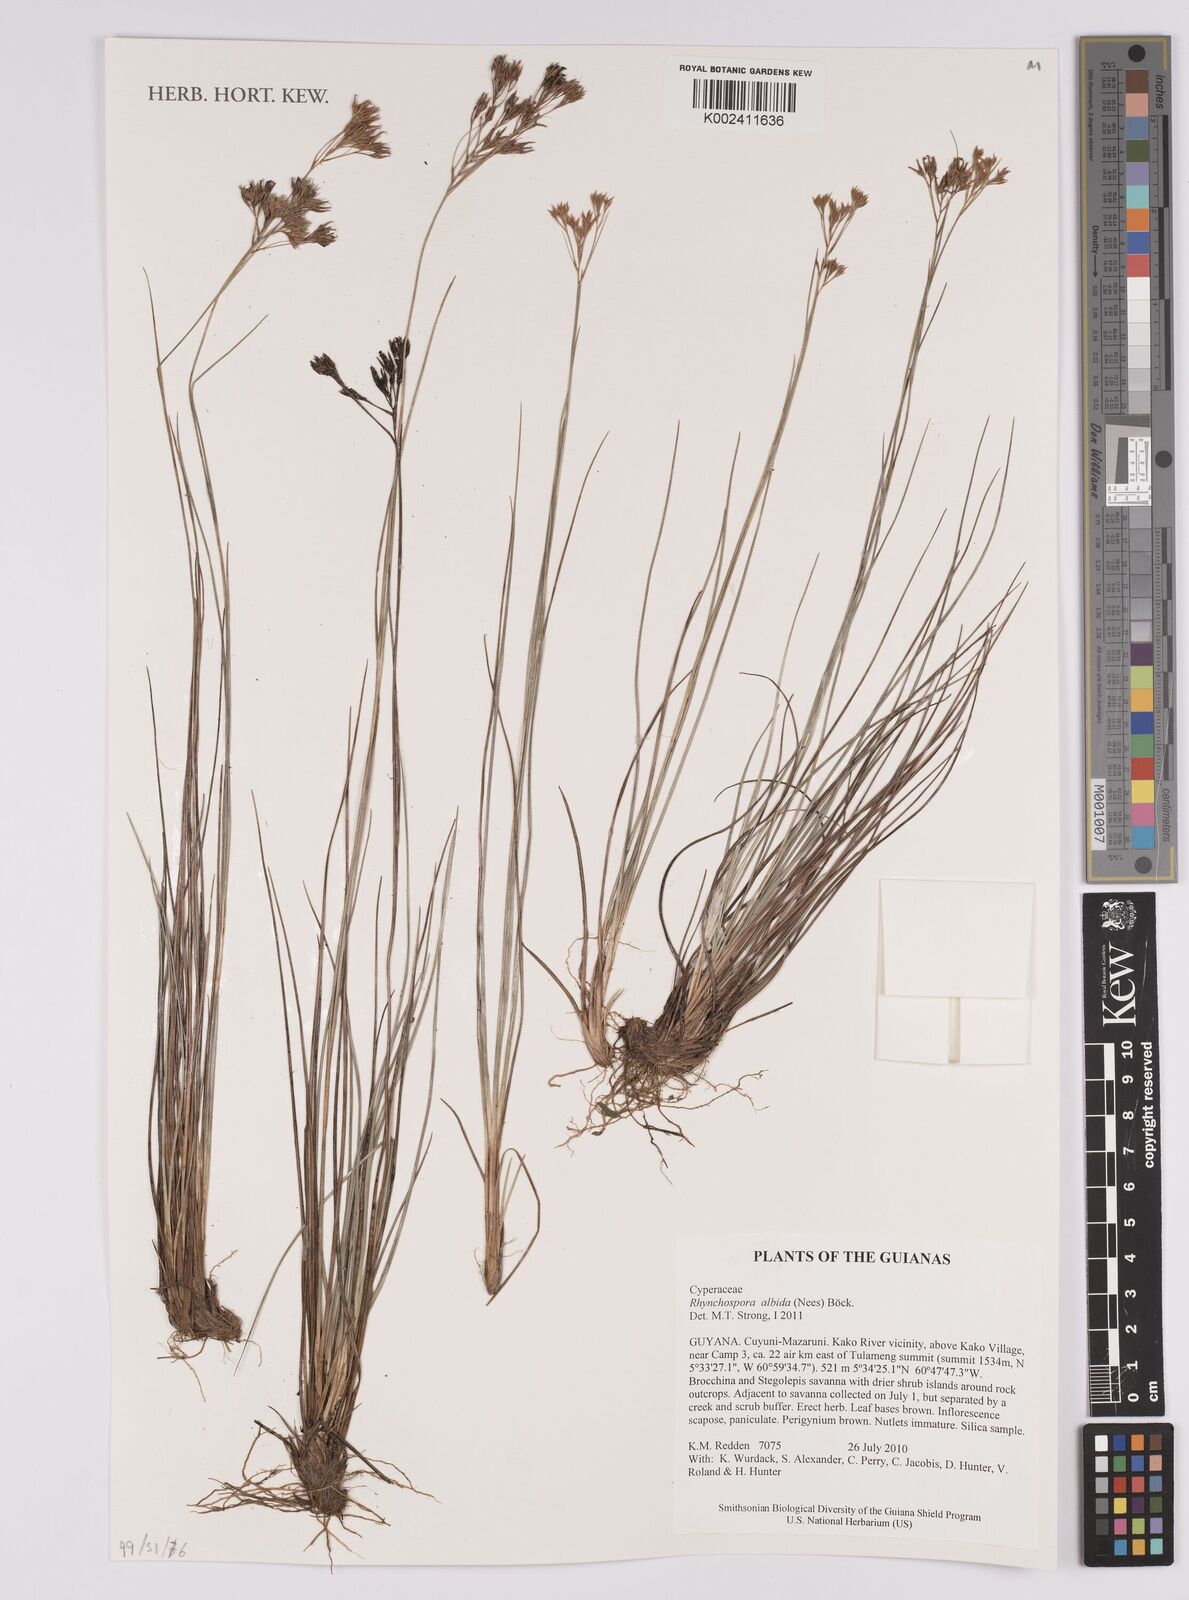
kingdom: Plantae
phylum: Tracheophyta
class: Liliopsida
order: Poales
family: Cyperaceae
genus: Rhynchospora
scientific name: Rhynchospora albida
